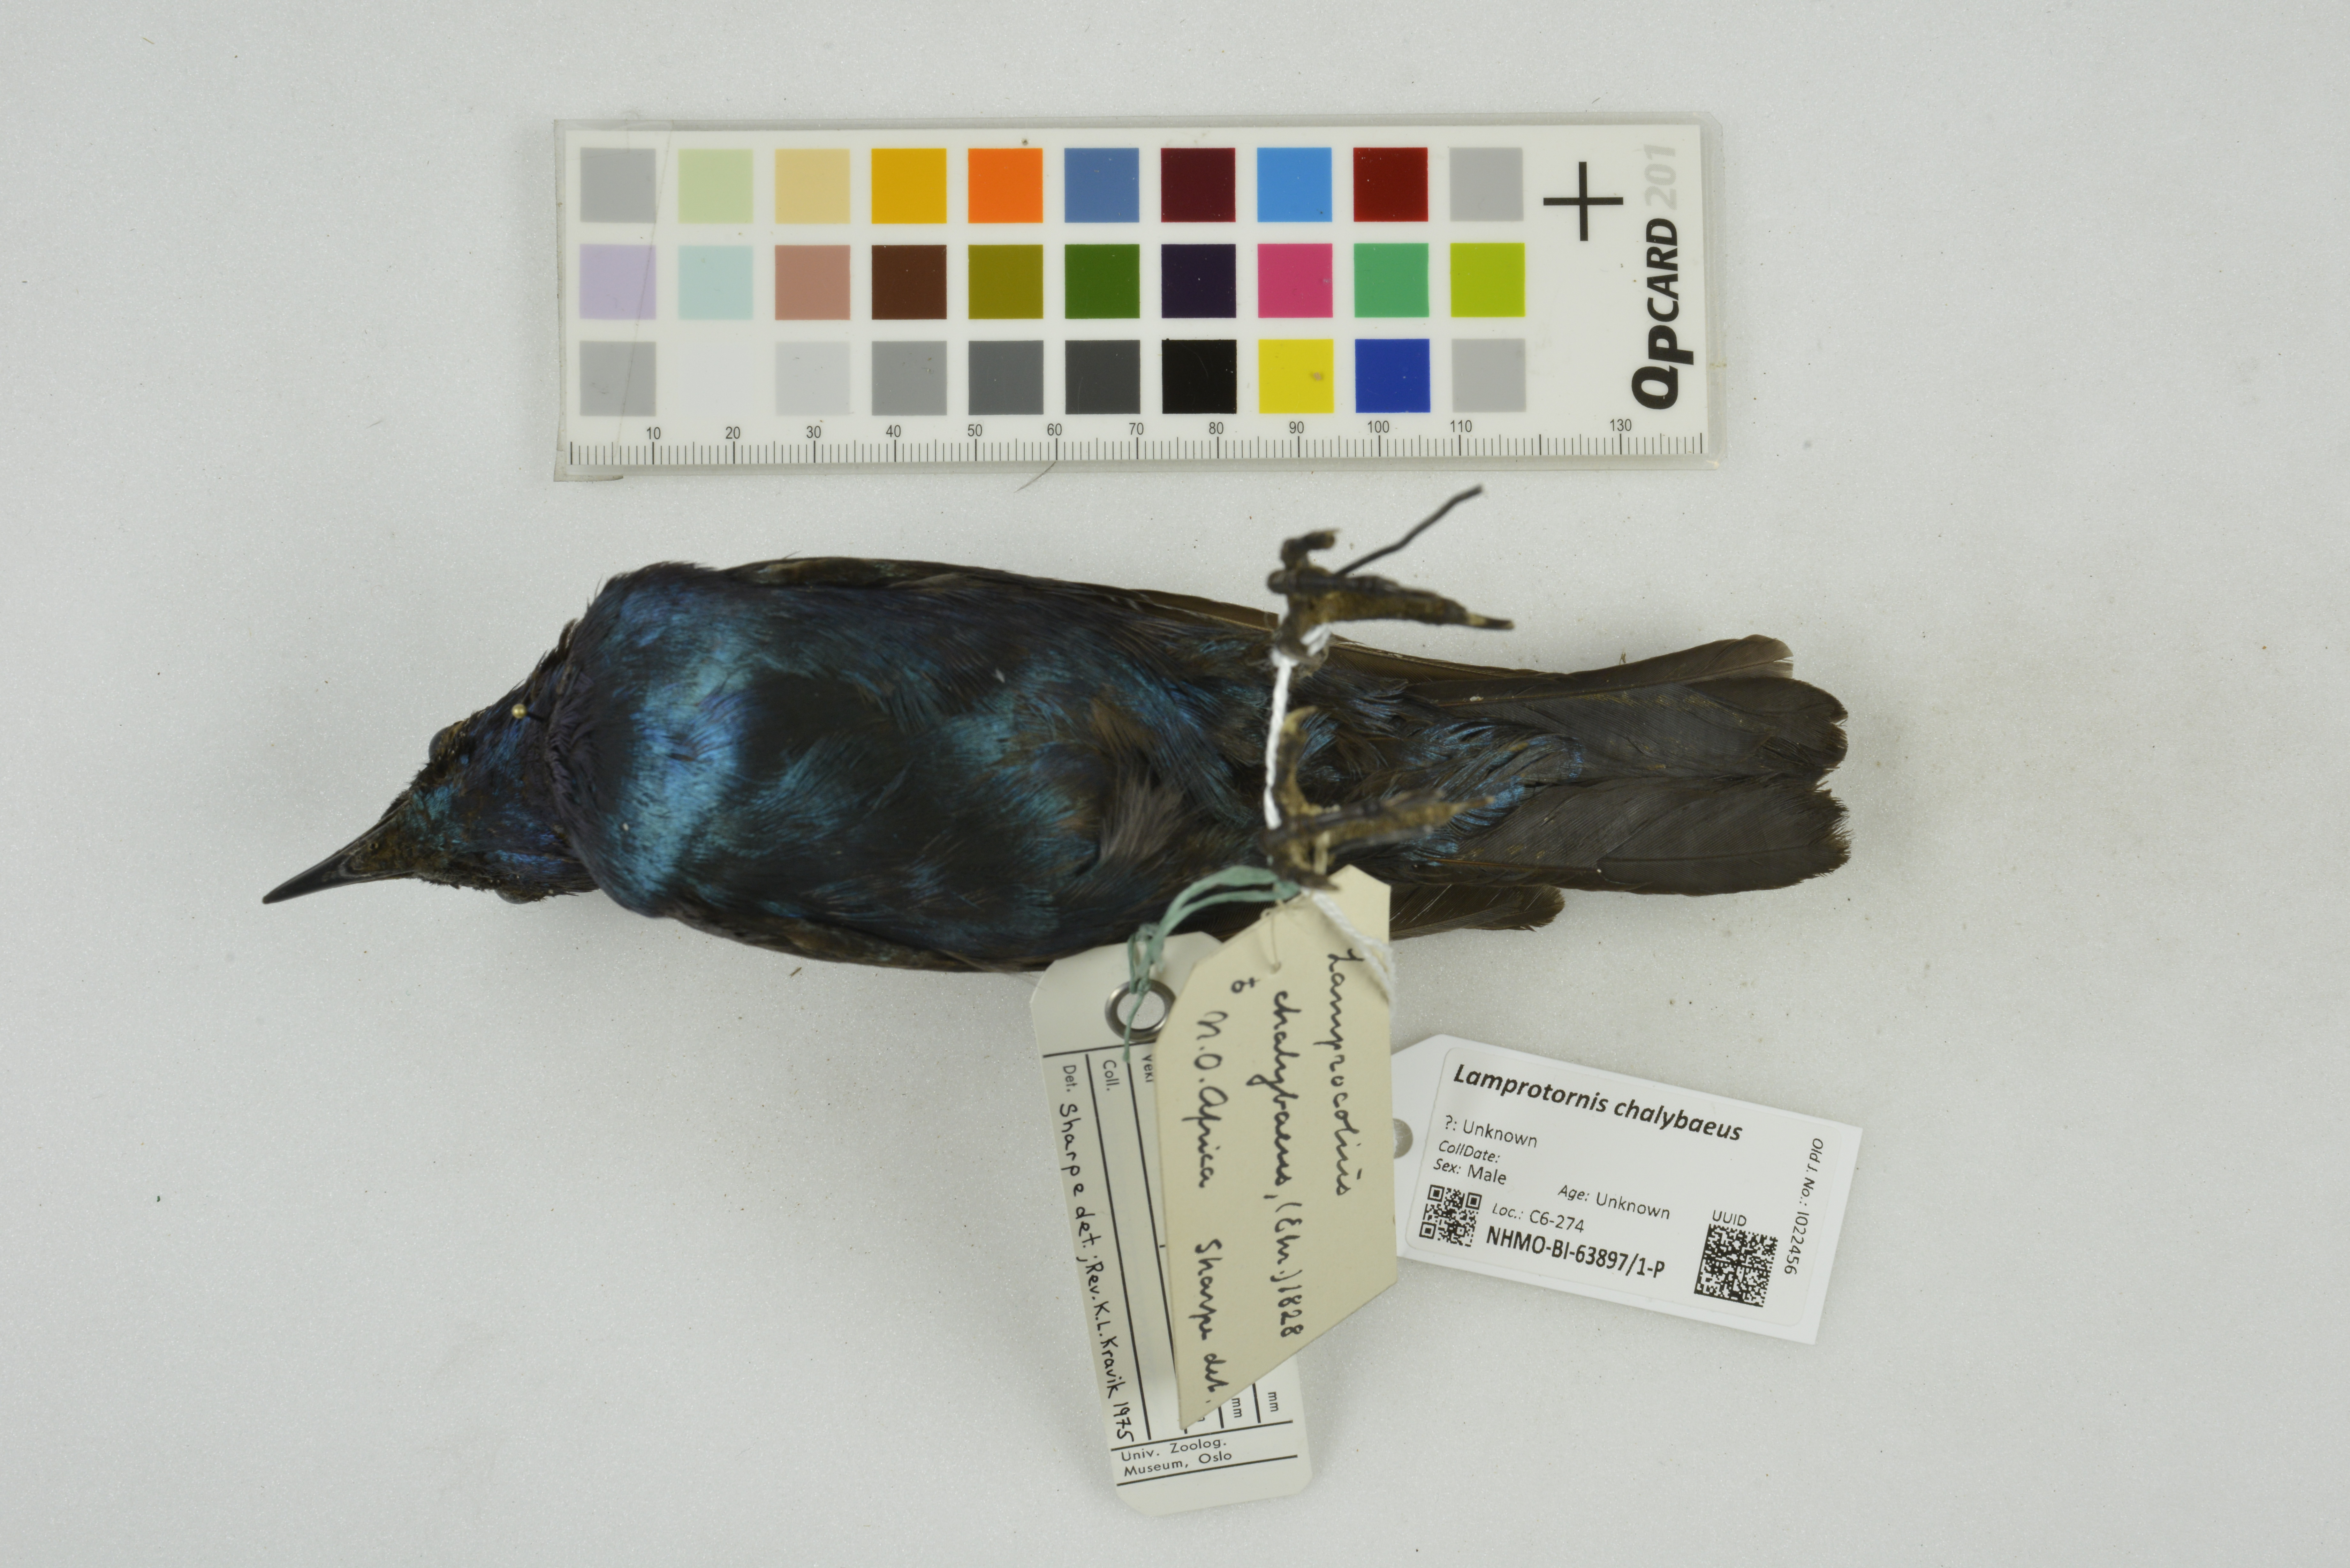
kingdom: Animalia
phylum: Chordata
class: Aves
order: Passeriformes
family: Sturnidae
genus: Lamprotornis
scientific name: Lamprotornis chalybaeus
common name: Greater blue-eared starling
